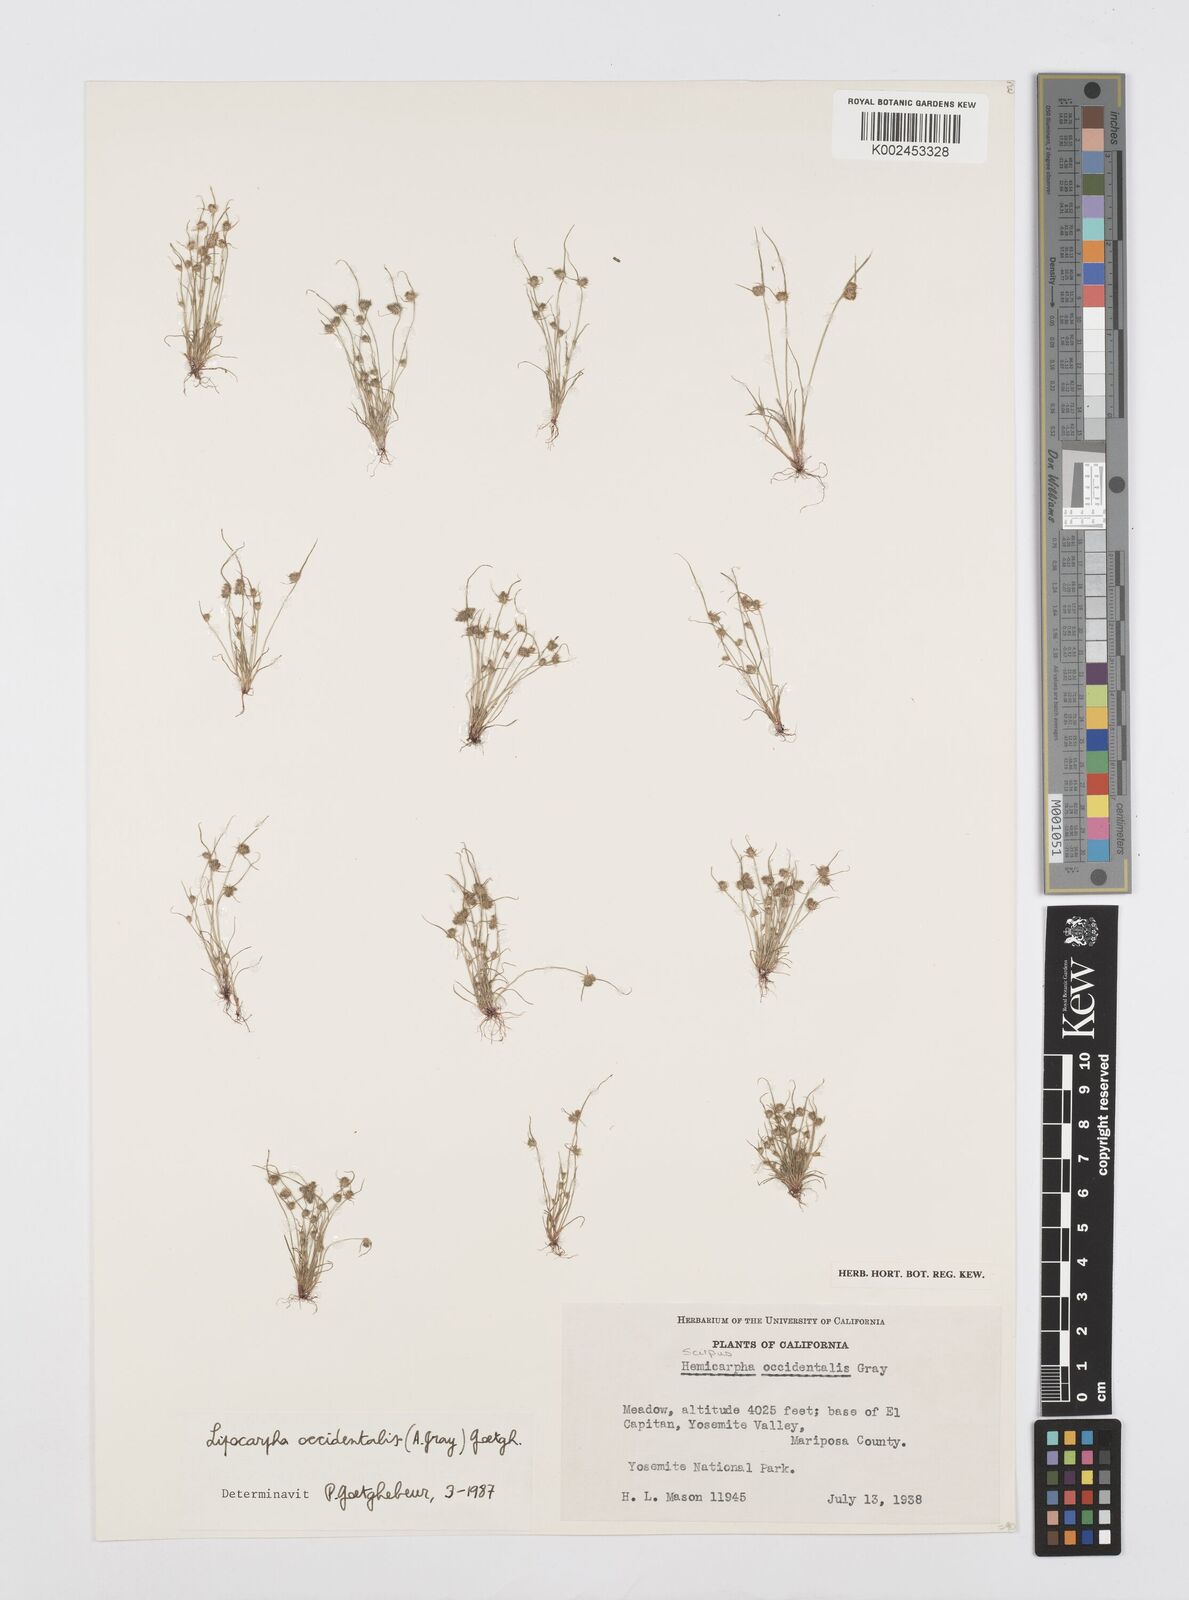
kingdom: Plantae
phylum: Tracheophyta
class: Liliopsida
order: Poales
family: Cyperaceae
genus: Cyperus
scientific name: Cyperus erythrorhizos
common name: Red-root flat sedge
